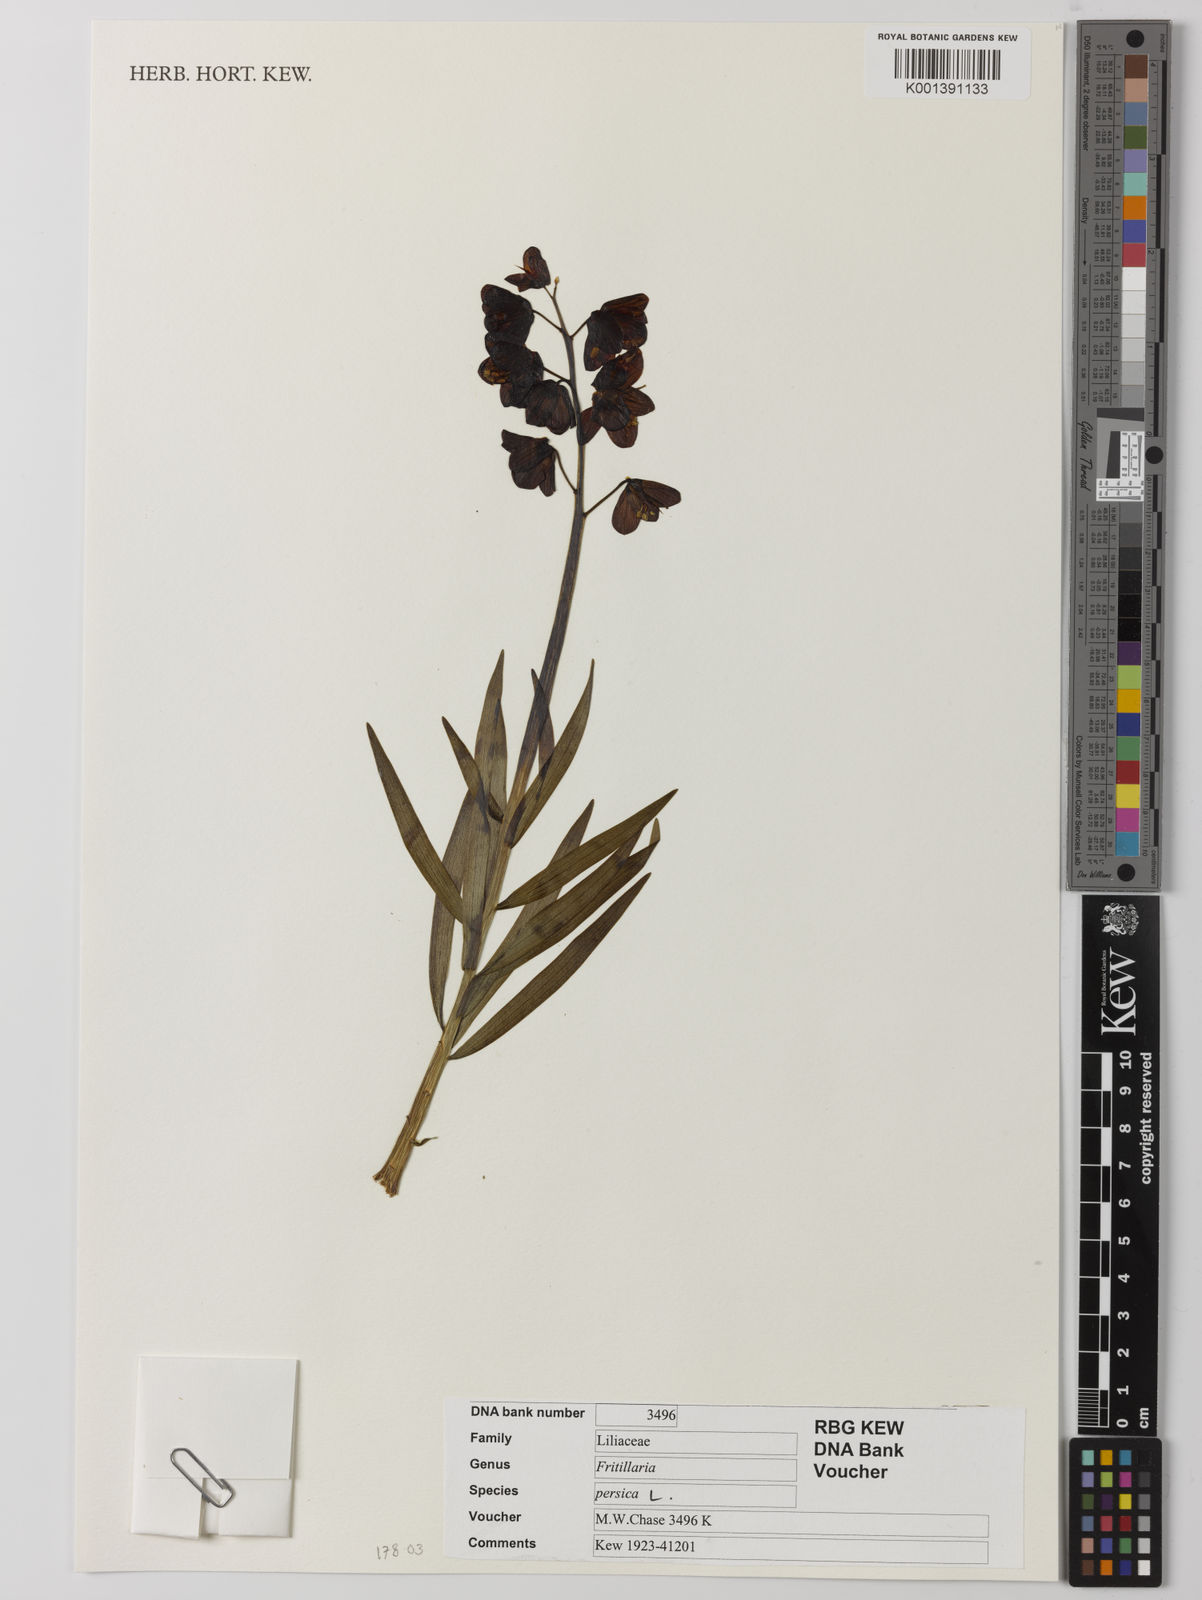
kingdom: Plantae
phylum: Tracheophyta
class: Liliopsida
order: Liliales
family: Liliaceae
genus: Fritillaria
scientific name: Fritillaria persica
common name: Persian fritillary
